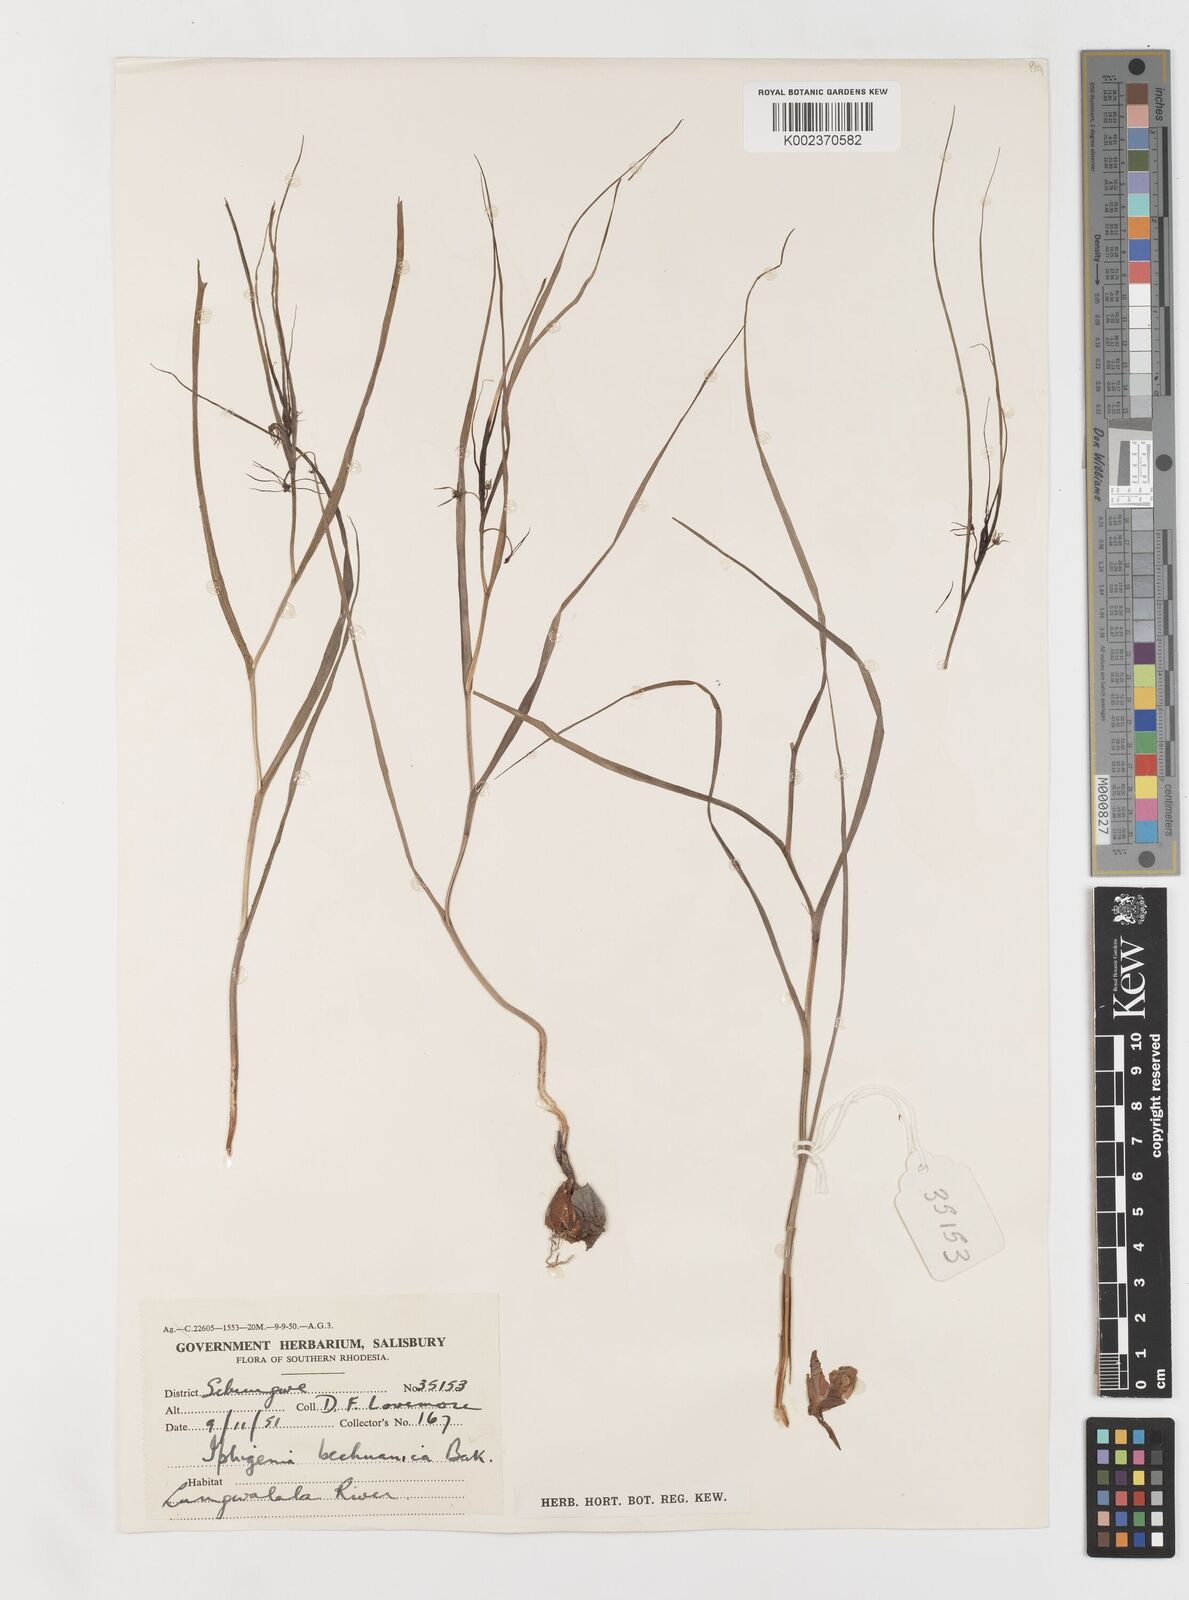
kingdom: Plantae
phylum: Tracheophyta
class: Liliopsida
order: Liliales
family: Colchicaceae
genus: Iphigenia
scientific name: Iphigenia oliveri
